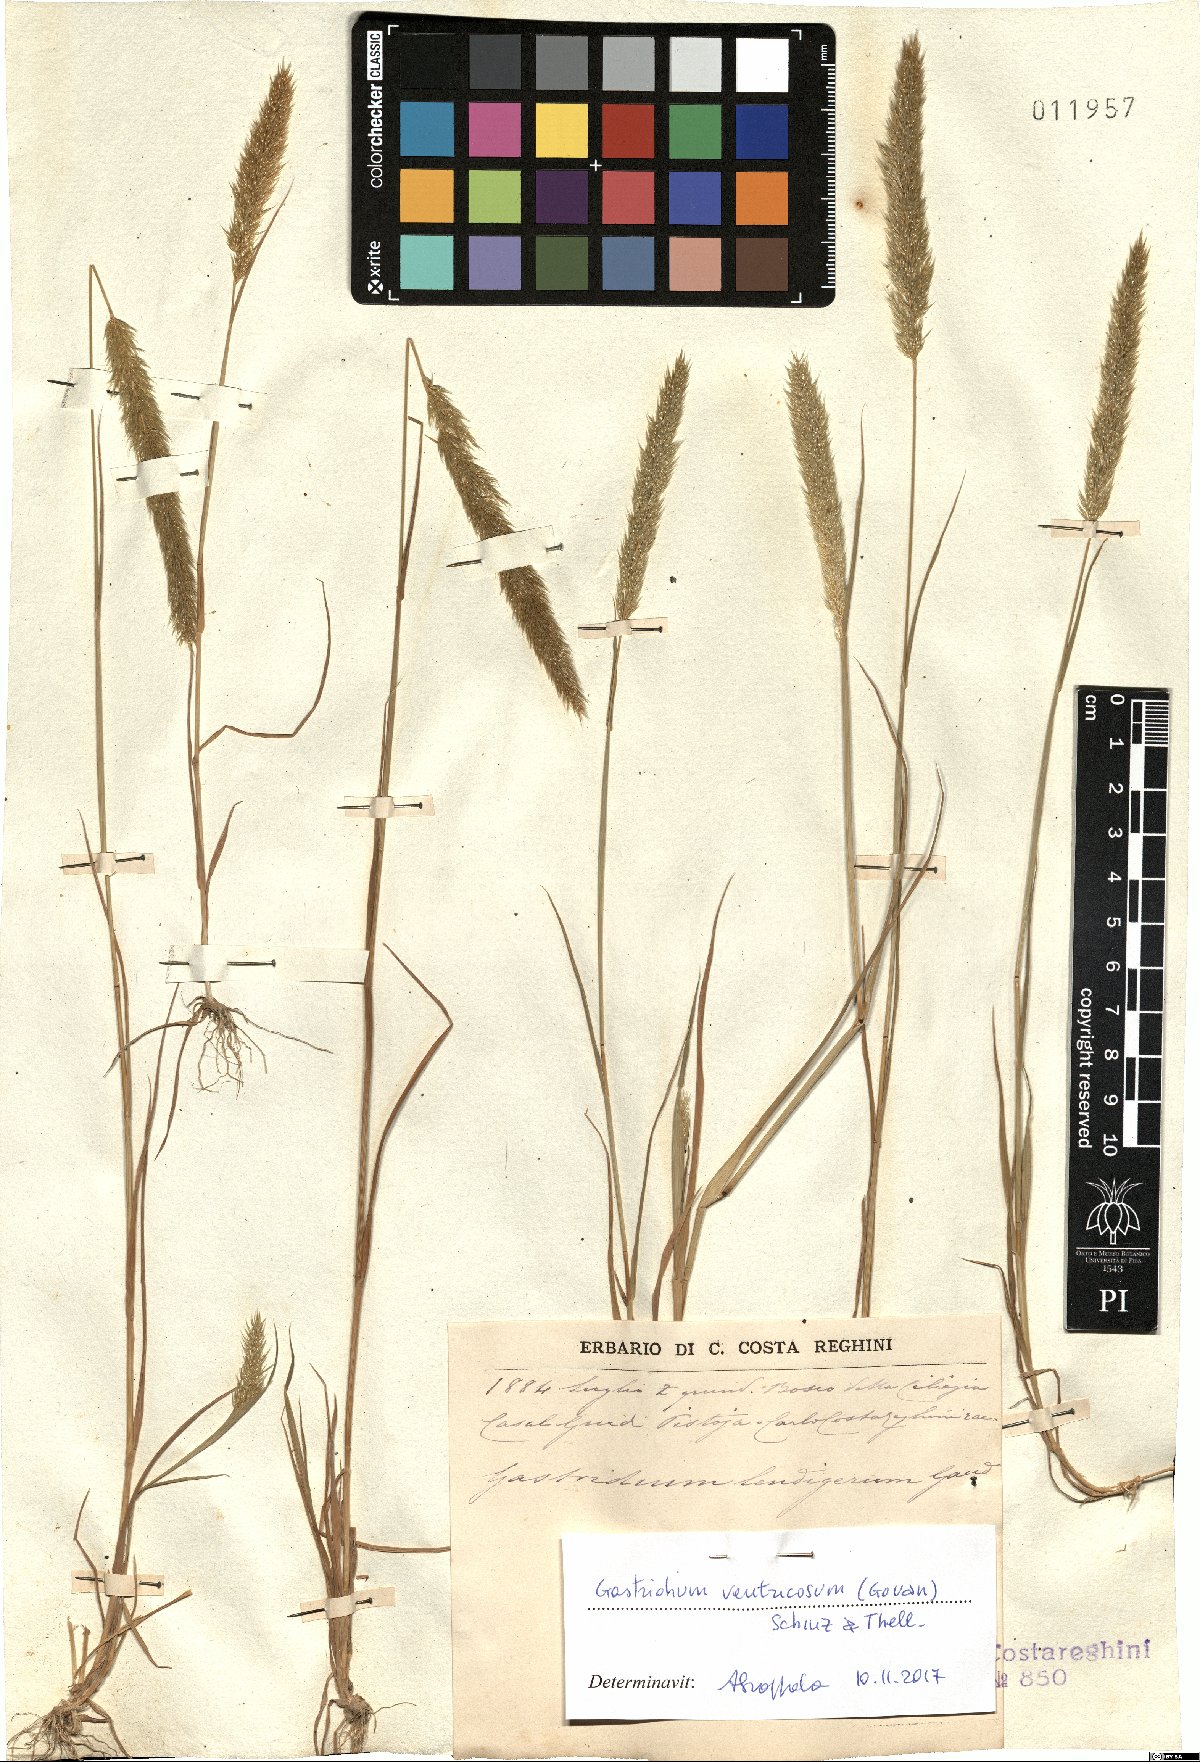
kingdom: Plantae
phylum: Tracheophyta
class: Liliopsida
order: Poales
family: Poaceae
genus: Gastridium
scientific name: Gastridium ventricosum
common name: Nit-grass
